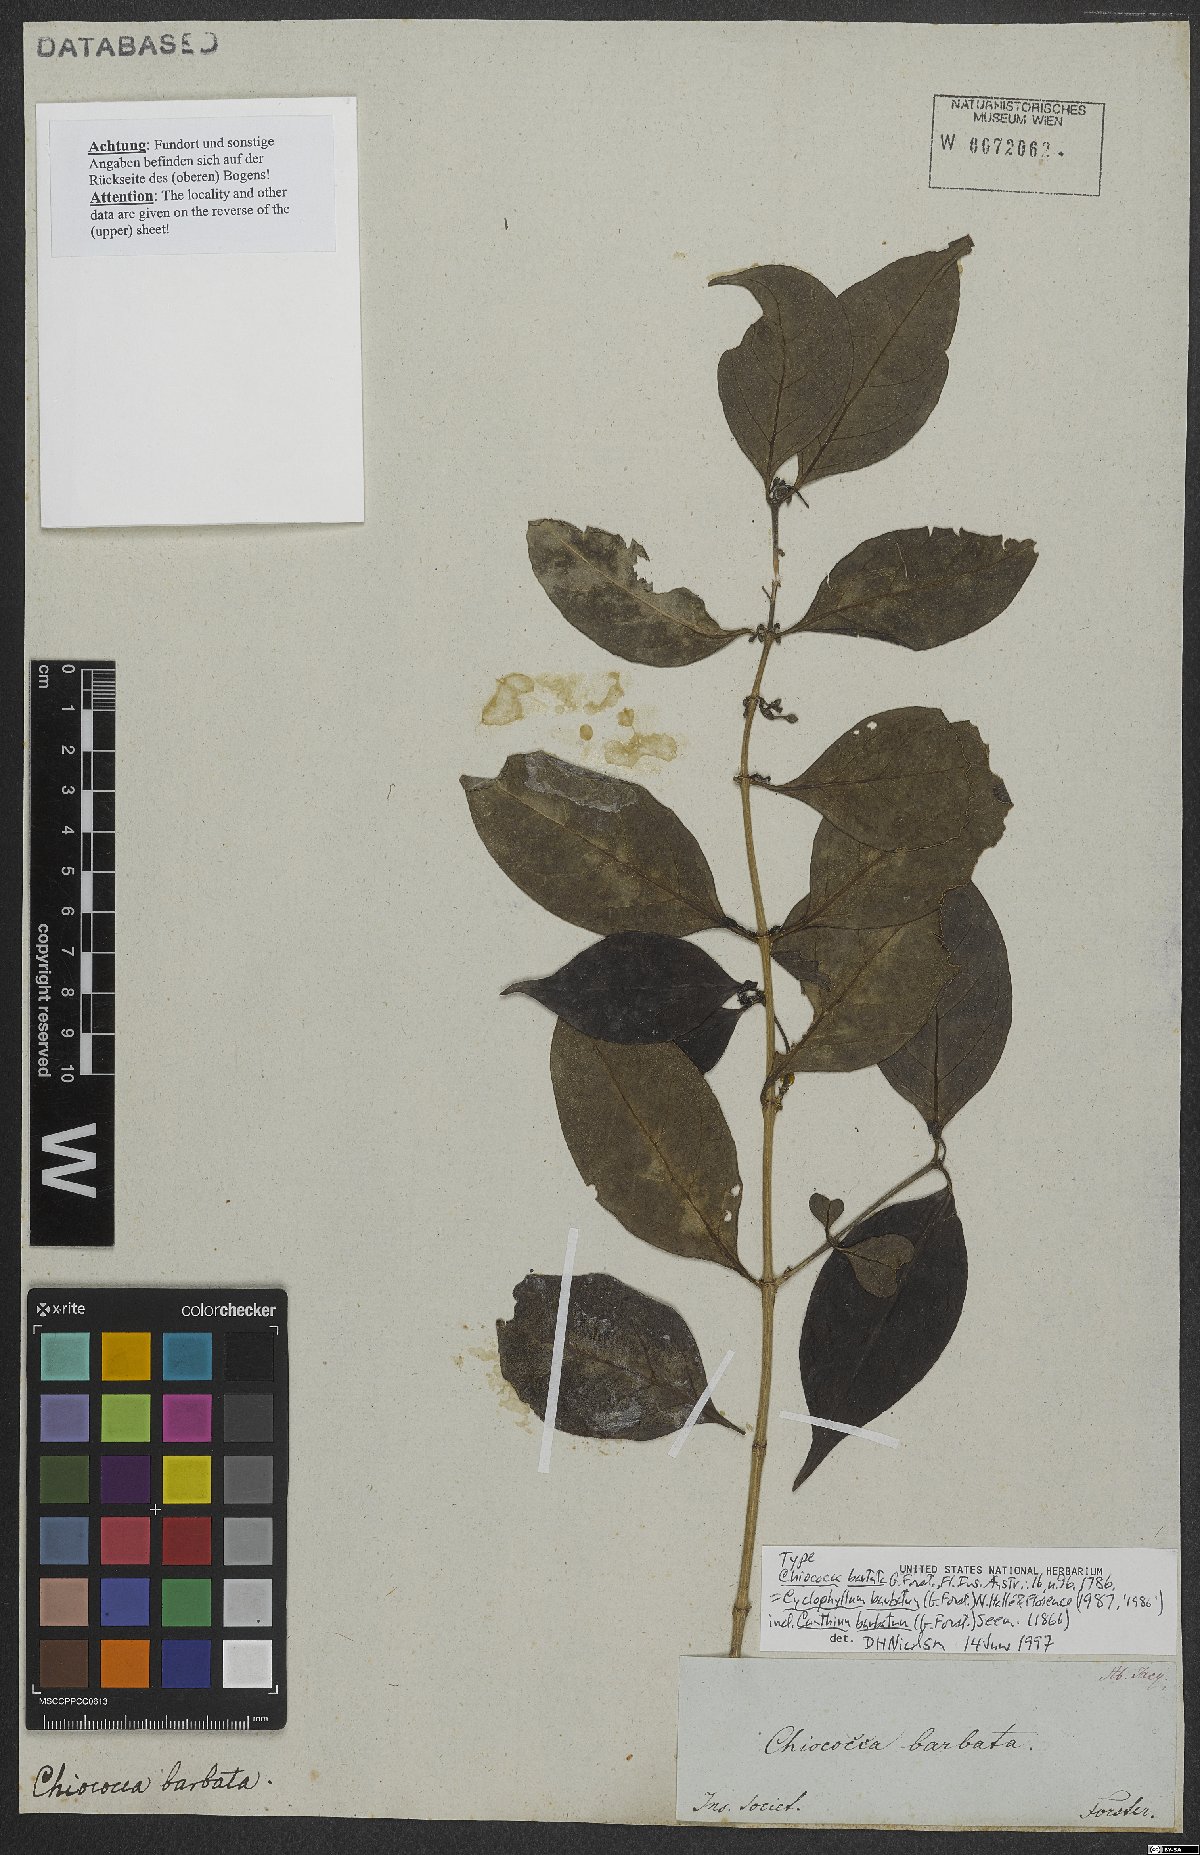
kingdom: Plantae
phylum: Tracheophyta
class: Magnoliopsida
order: Gentianales
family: Rubiaceae
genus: Cyclophyllum
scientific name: Cyclophyllum barbatum
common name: Cyclophyllum
